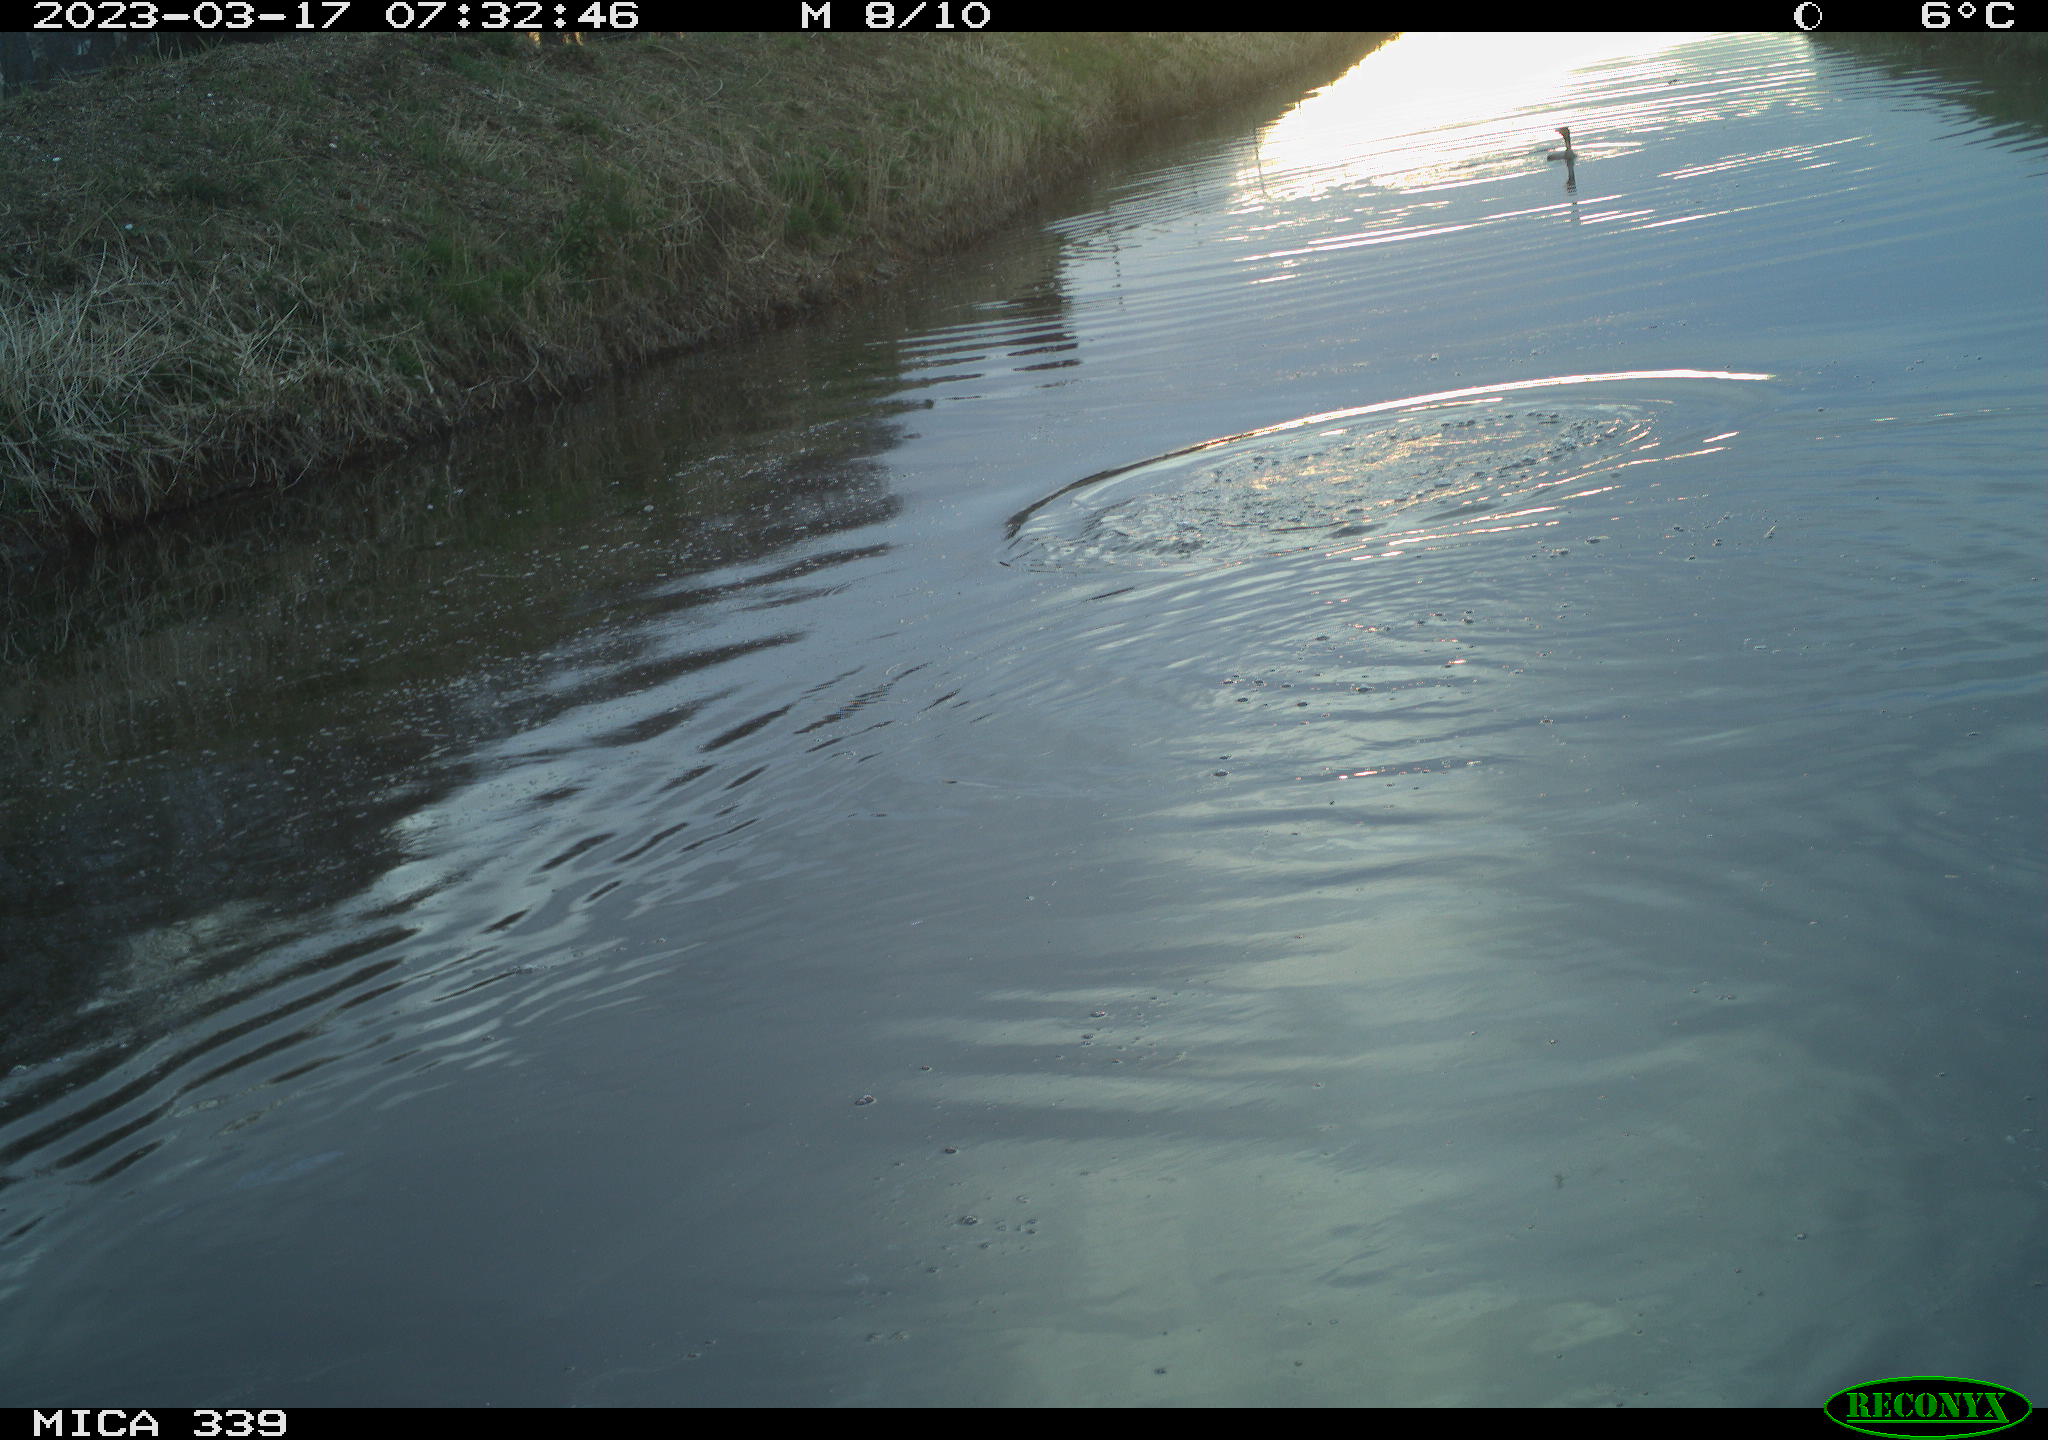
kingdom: Animalia
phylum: Chordata
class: Aves
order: Suliformes
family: Phalacrocoracidae
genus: Phalacrocorax
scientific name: Phalacrocorax carbo
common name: Great cormorant
